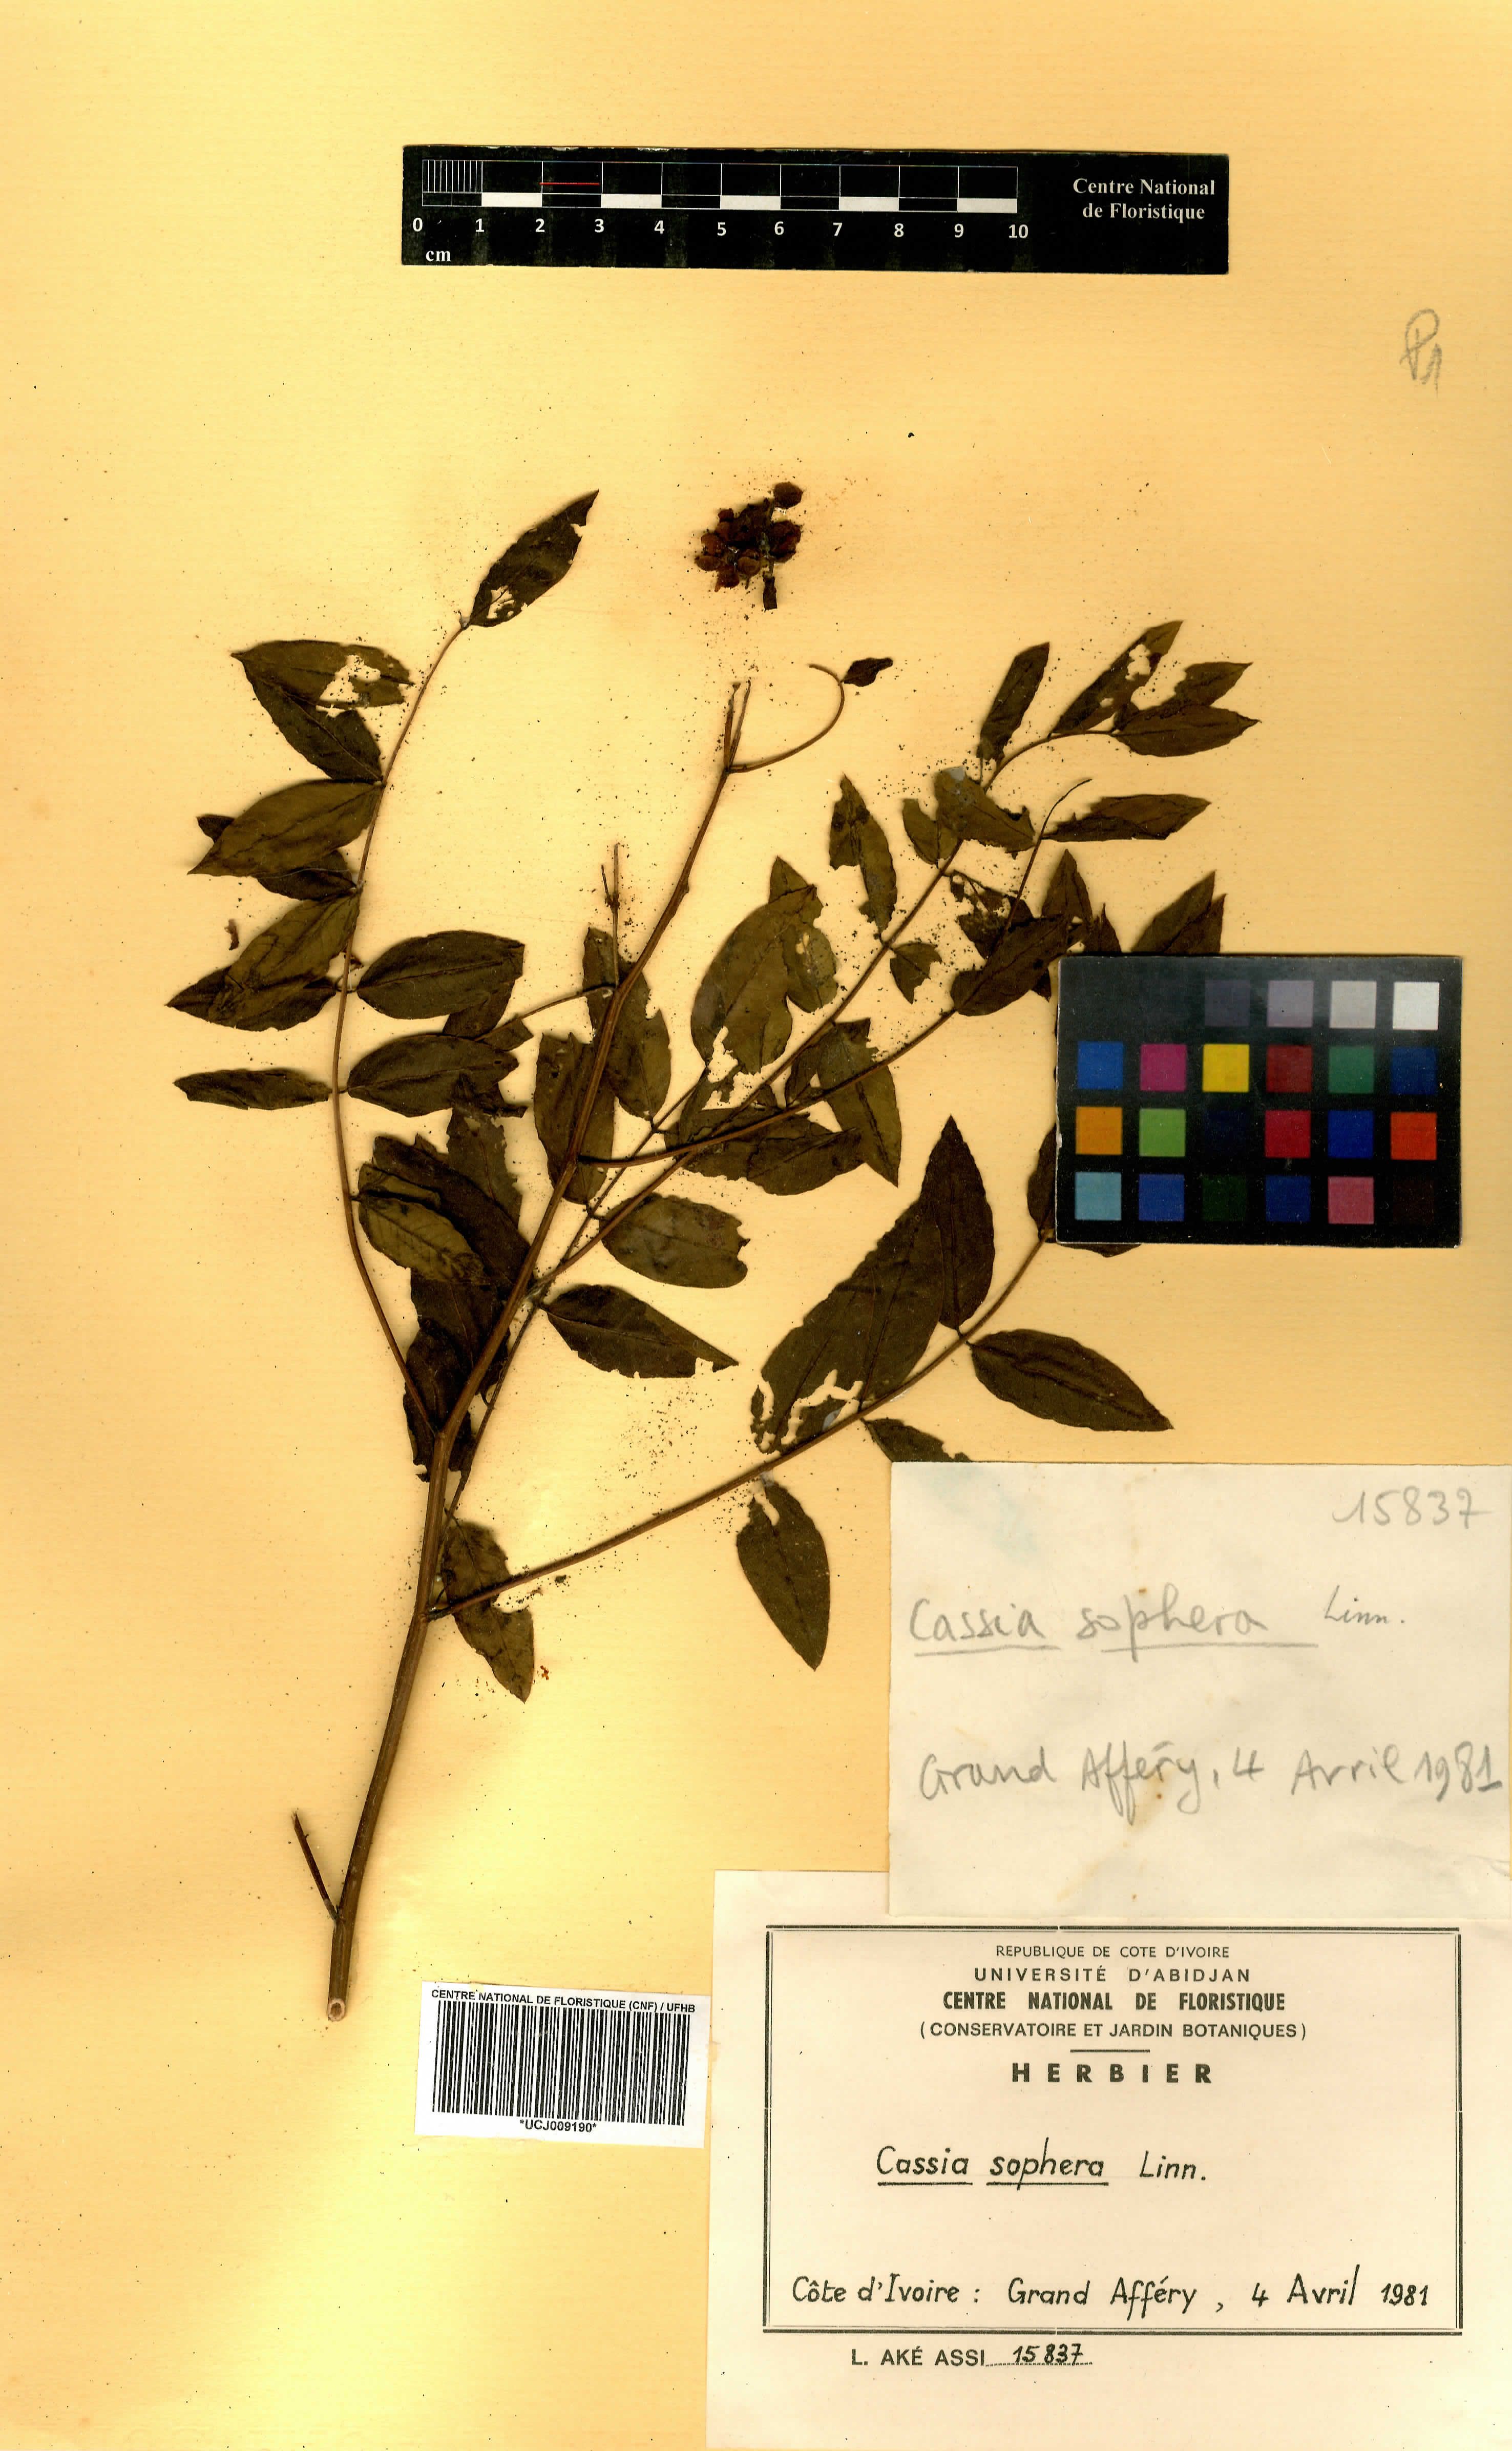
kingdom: Plantae
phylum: Tracheophyta
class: Magnoliopsida
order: Fabales
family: Fabaceae
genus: Senna
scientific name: Senna sophera
